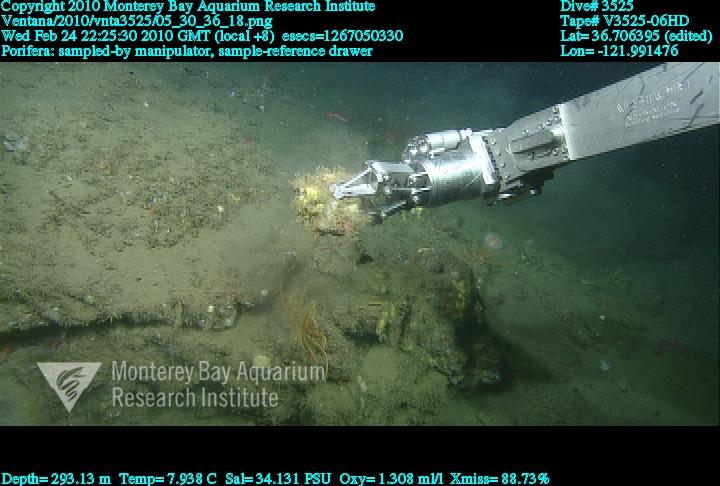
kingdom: Animalia
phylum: Porifera
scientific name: Porifera
